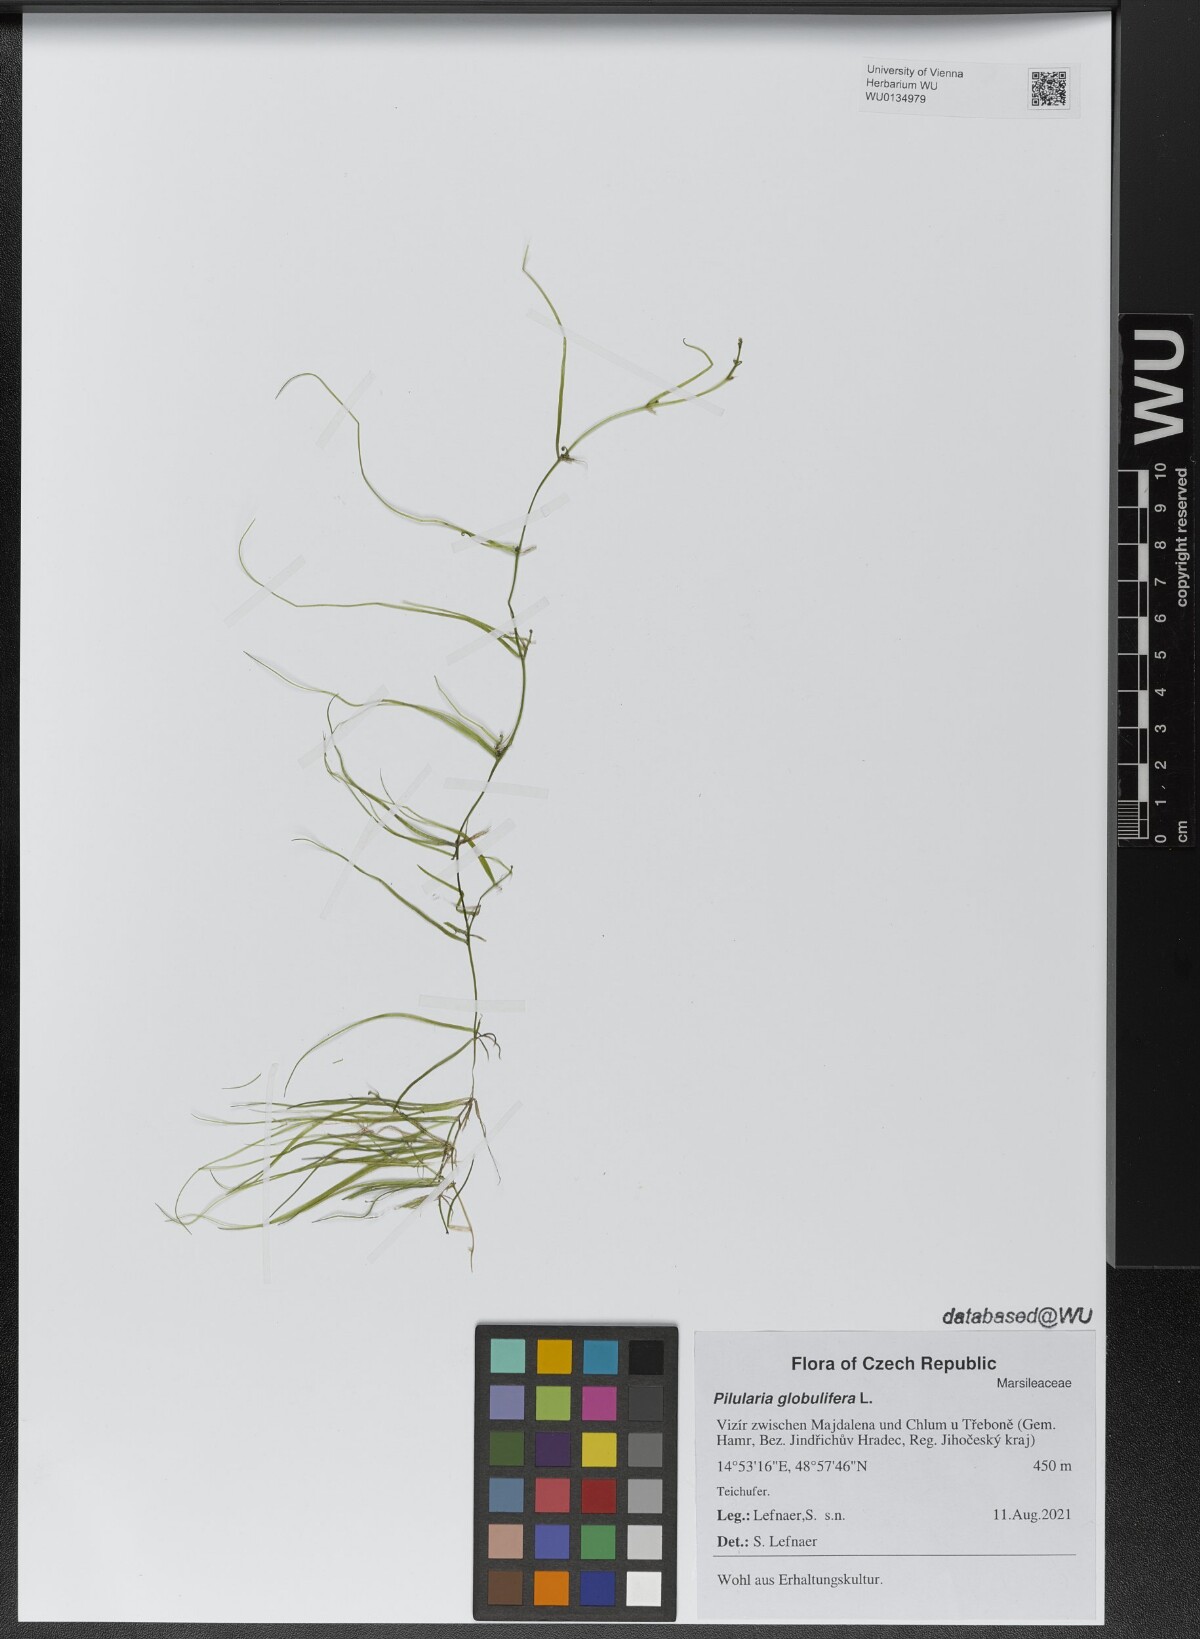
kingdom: Plantae
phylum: Tracheophyta
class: Polypodiopsida
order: Salviniales
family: Marsileaceae
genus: Pilularia
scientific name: Pilularia globulifera
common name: Pillwort
